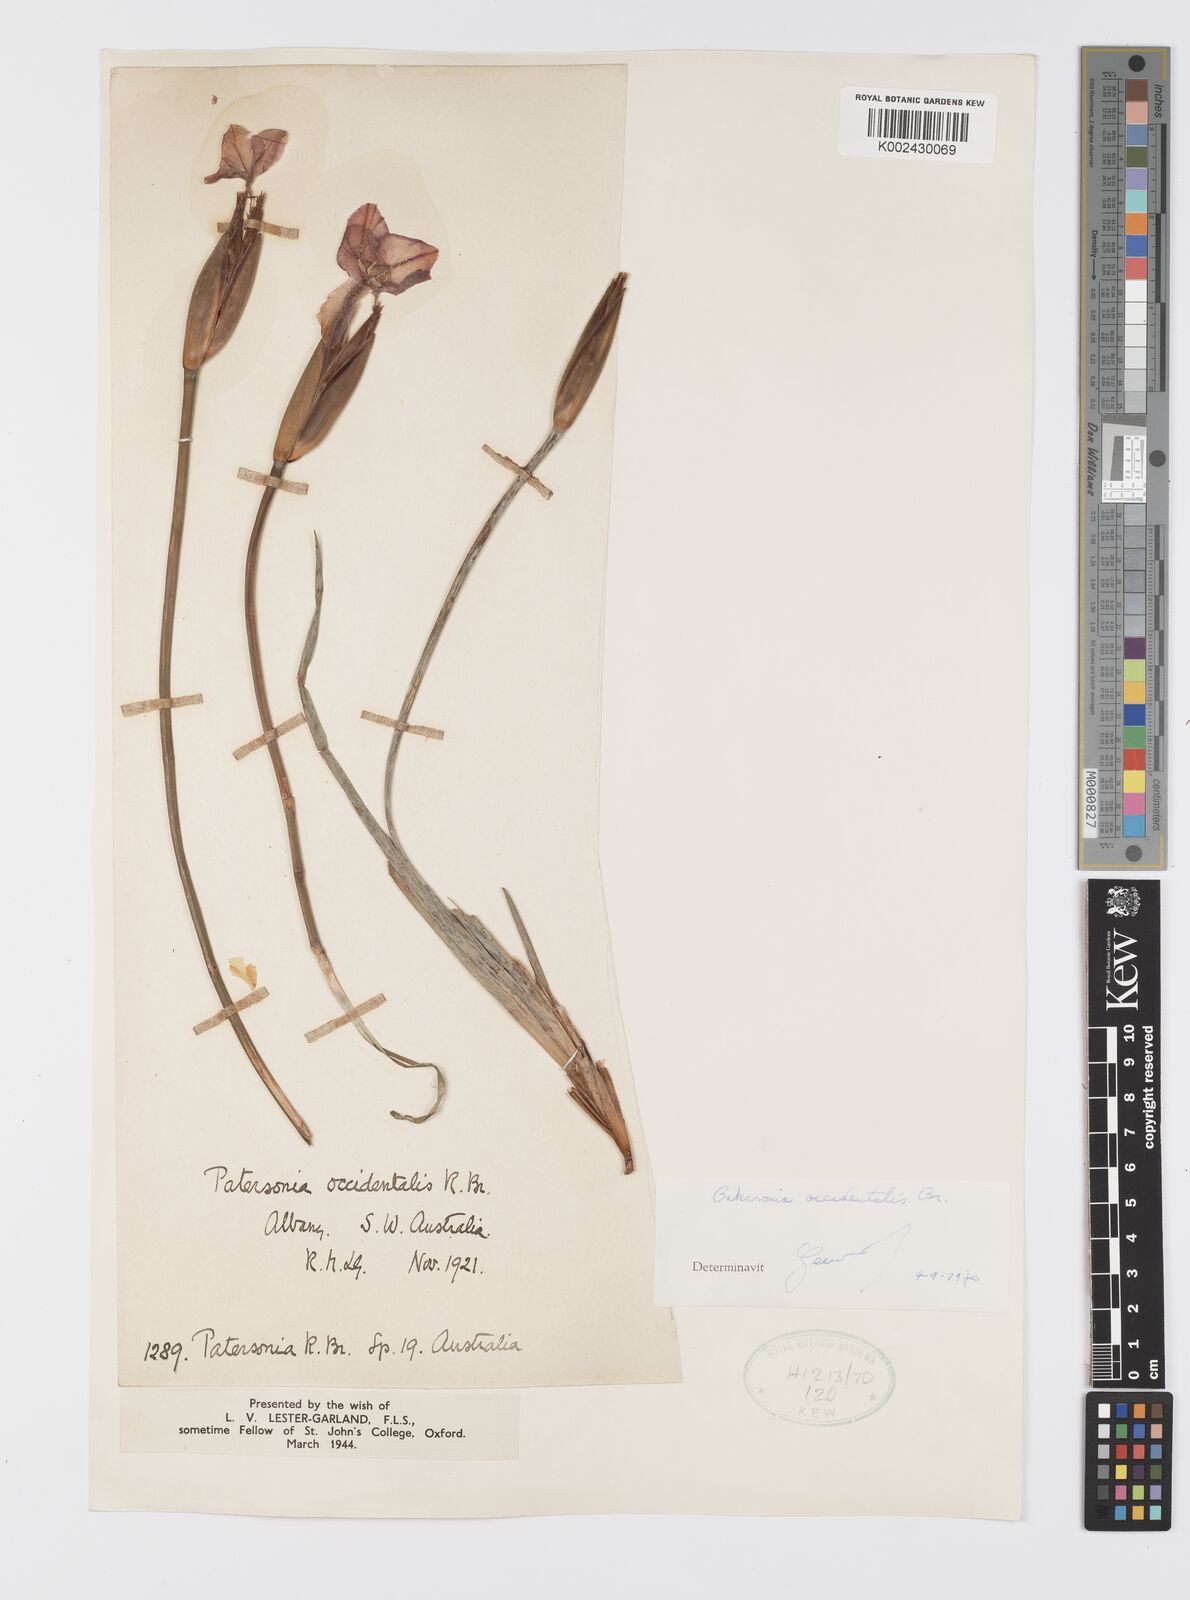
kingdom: Plantae
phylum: Tracheophyta
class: Liliopsida
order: Asparagales
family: Iridaceae
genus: Patersonia
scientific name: Patersonia occidentalis
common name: Long purple-flag
